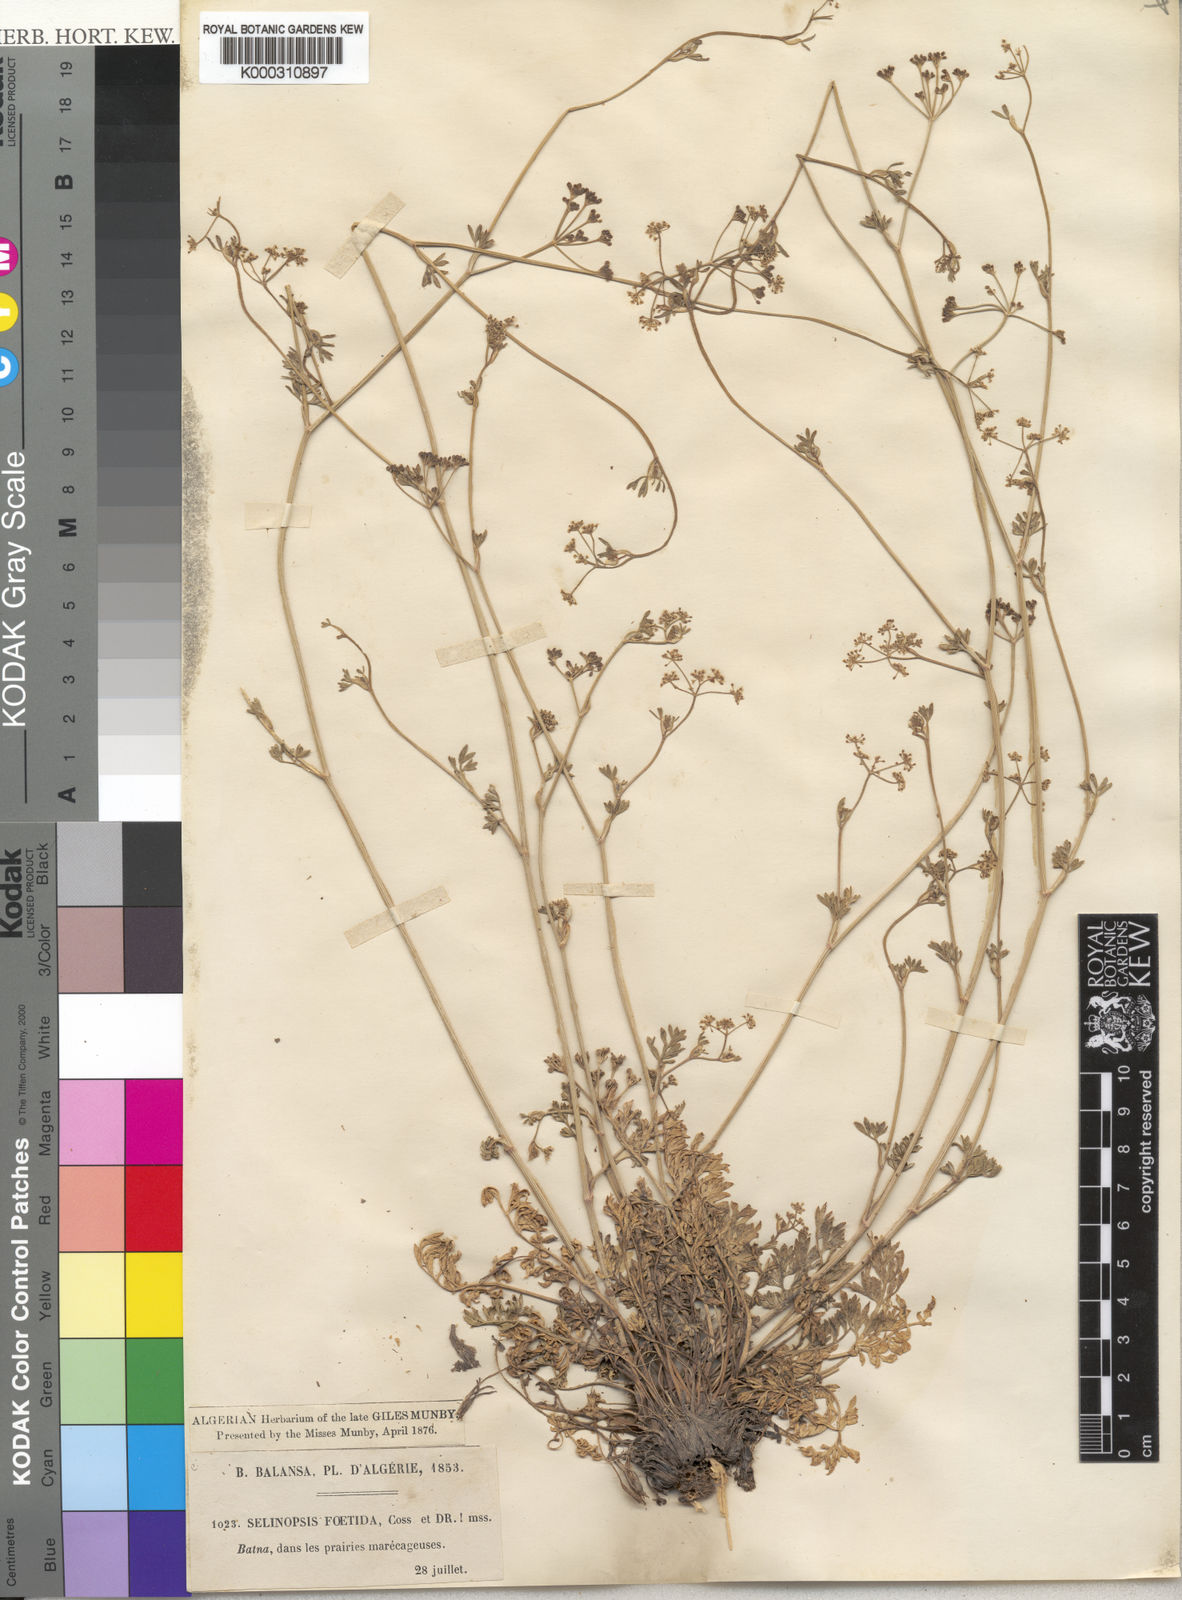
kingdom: Plantae
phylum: Tracheophyta
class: Magnoliopsida
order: Apiales
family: Apiaceae
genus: Carum
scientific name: Carum
